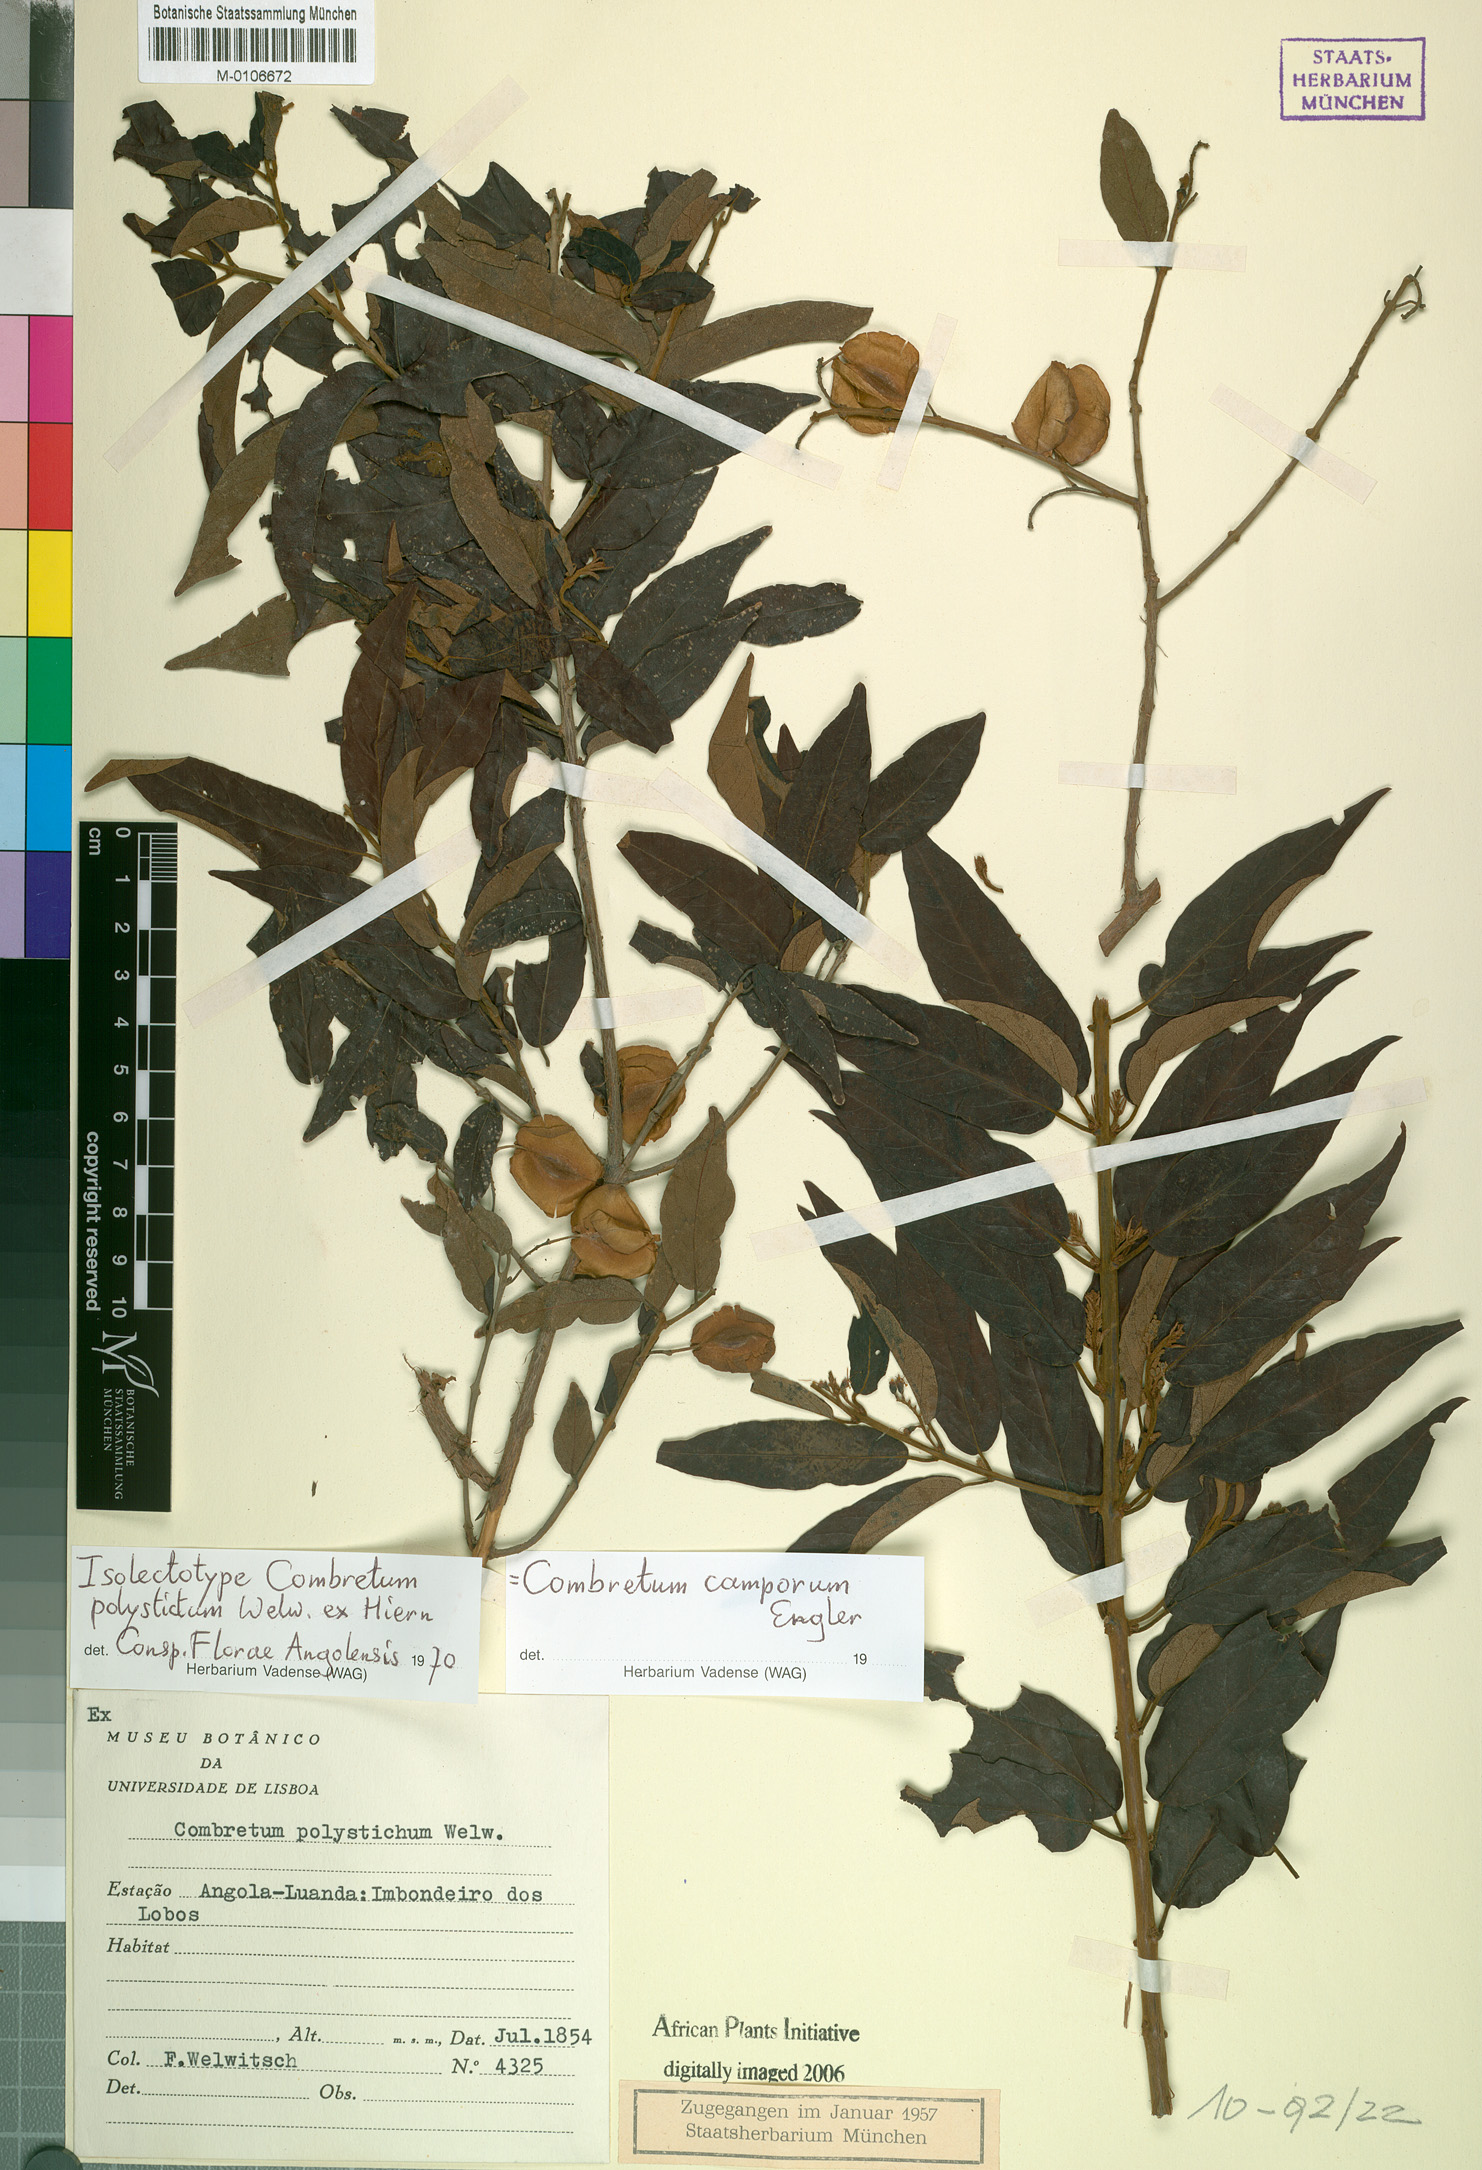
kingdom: Plantae
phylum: Tracheophyta
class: Magnoliopsida
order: Myrtales
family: Combretaceae
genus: Combretum
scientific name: Combretum camporum
